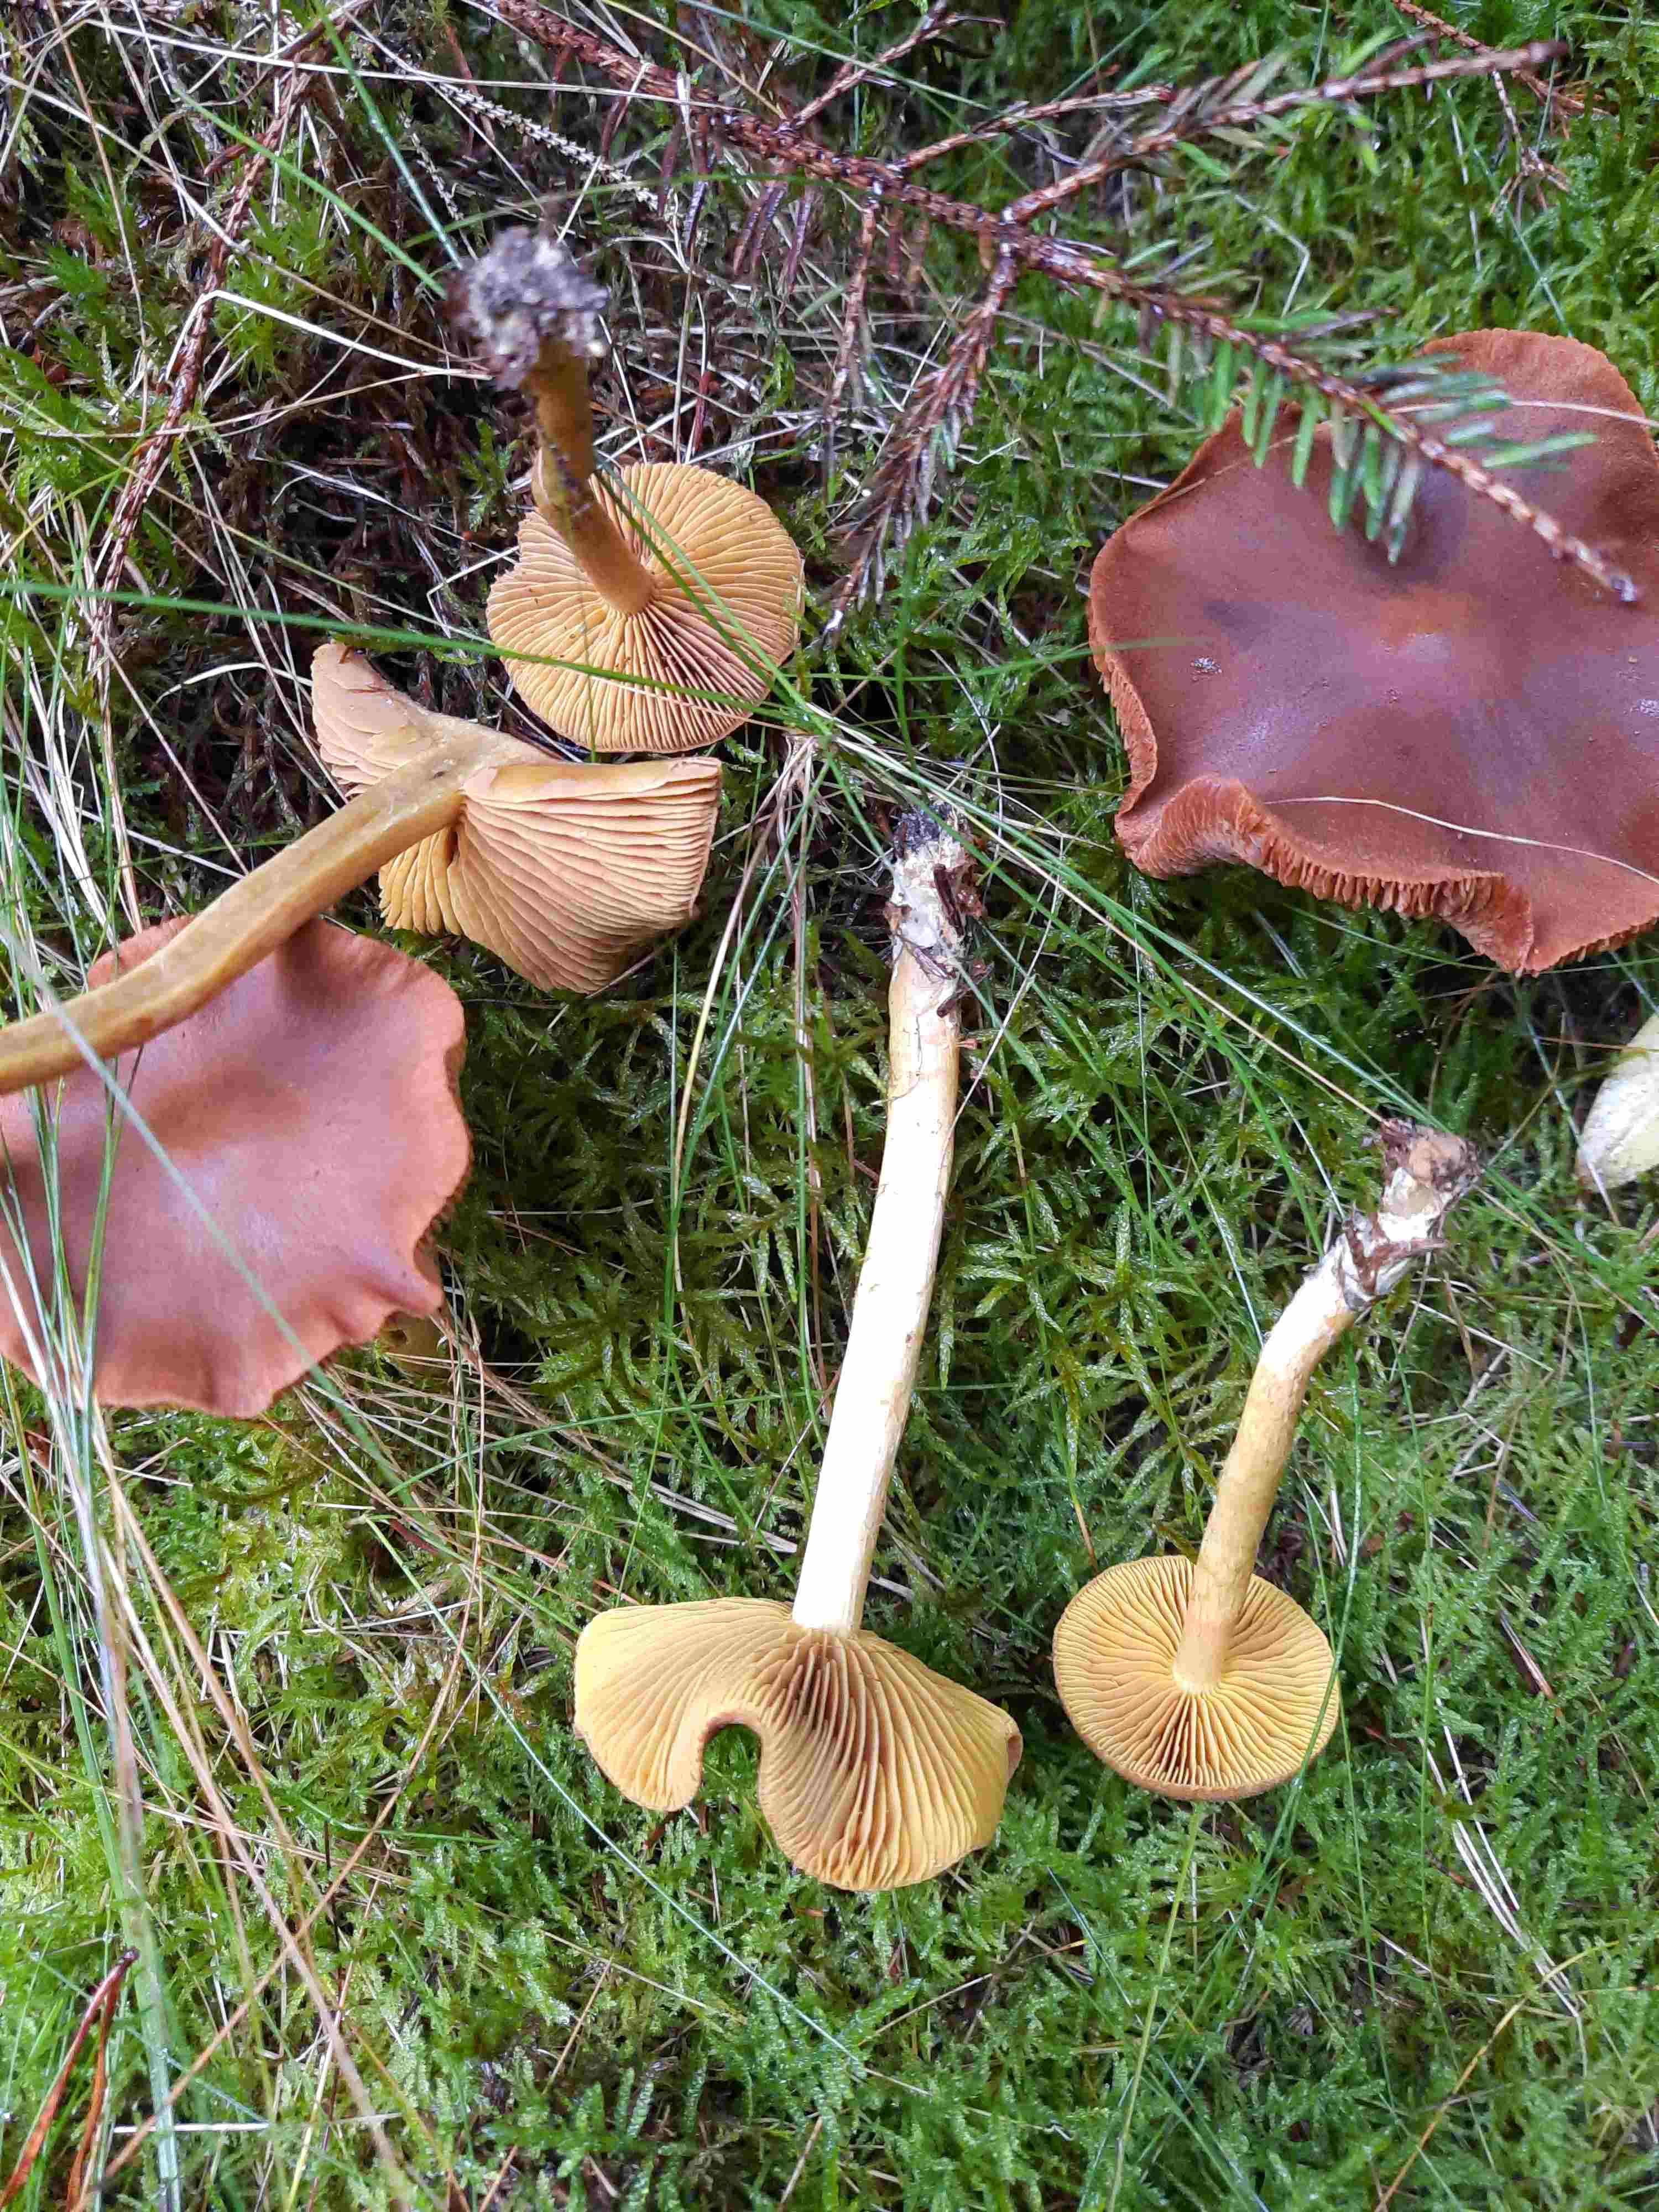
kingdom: Fungi
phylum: Basidiomycota
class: Agaricomycetes
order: Agaricales
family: Cortinariaceae
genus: Cortinarius
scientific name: Cortinarius
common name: gulbladet slørhat
